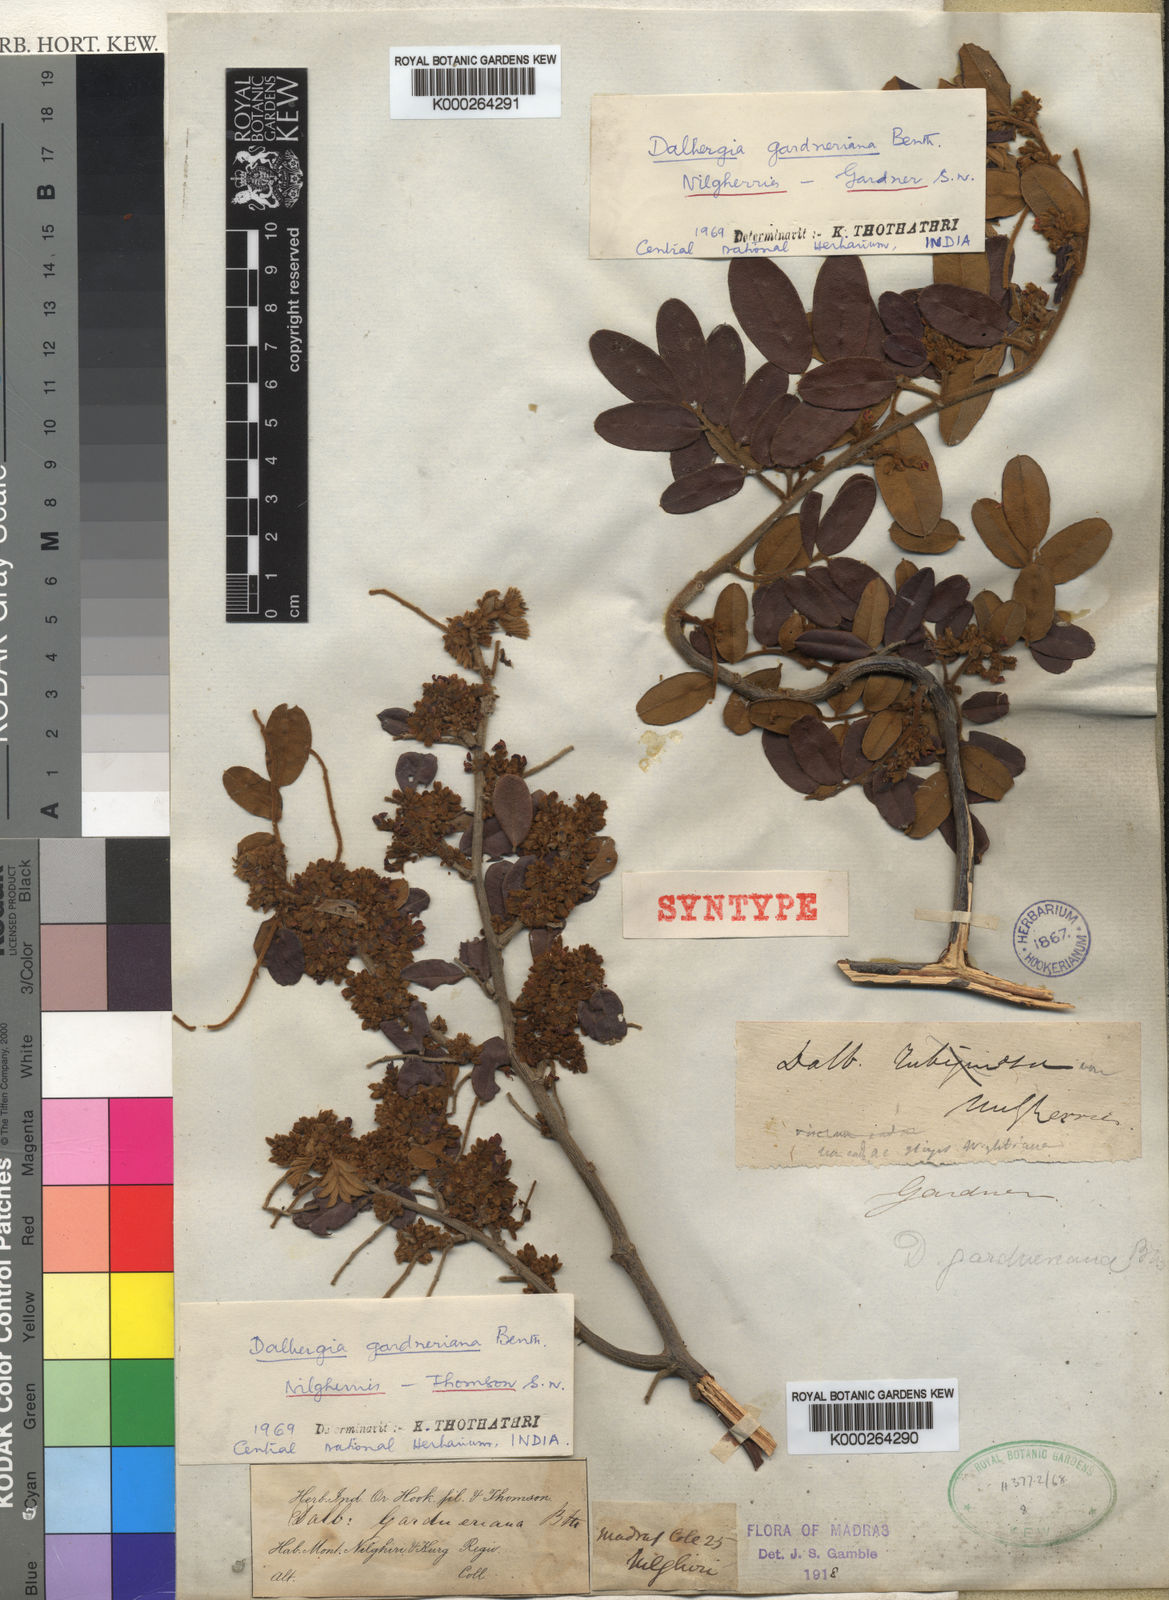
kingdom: Plantae
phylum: Tracheophyta
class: Magnoliopsida
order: Fabales
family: Fabaceae
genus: Dalbergia
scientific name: Dalbergia gardneriana
